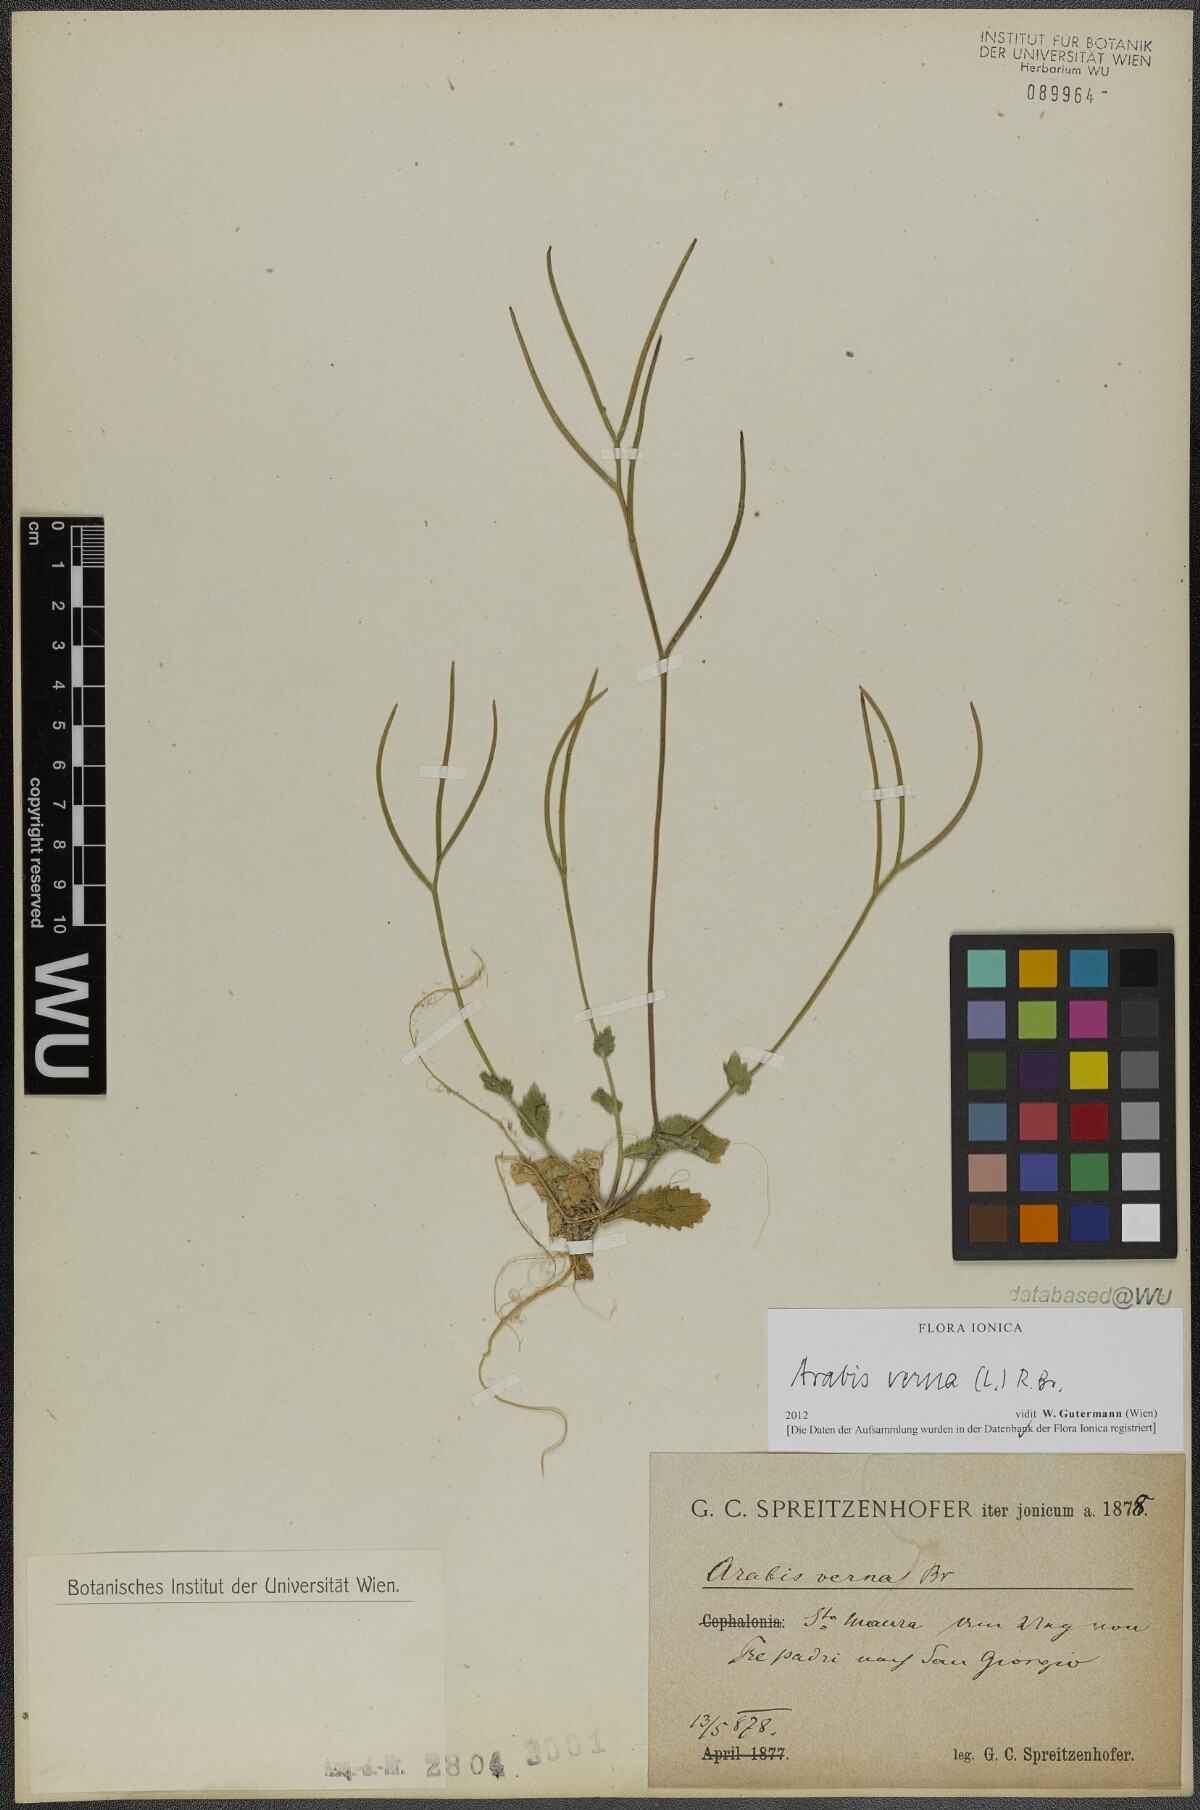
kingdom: Plantae
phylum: Tracheophyta
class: Magnoliopsida
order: Brassicales
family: Brassicaceae
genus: Arabis
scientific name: Arabis verna
